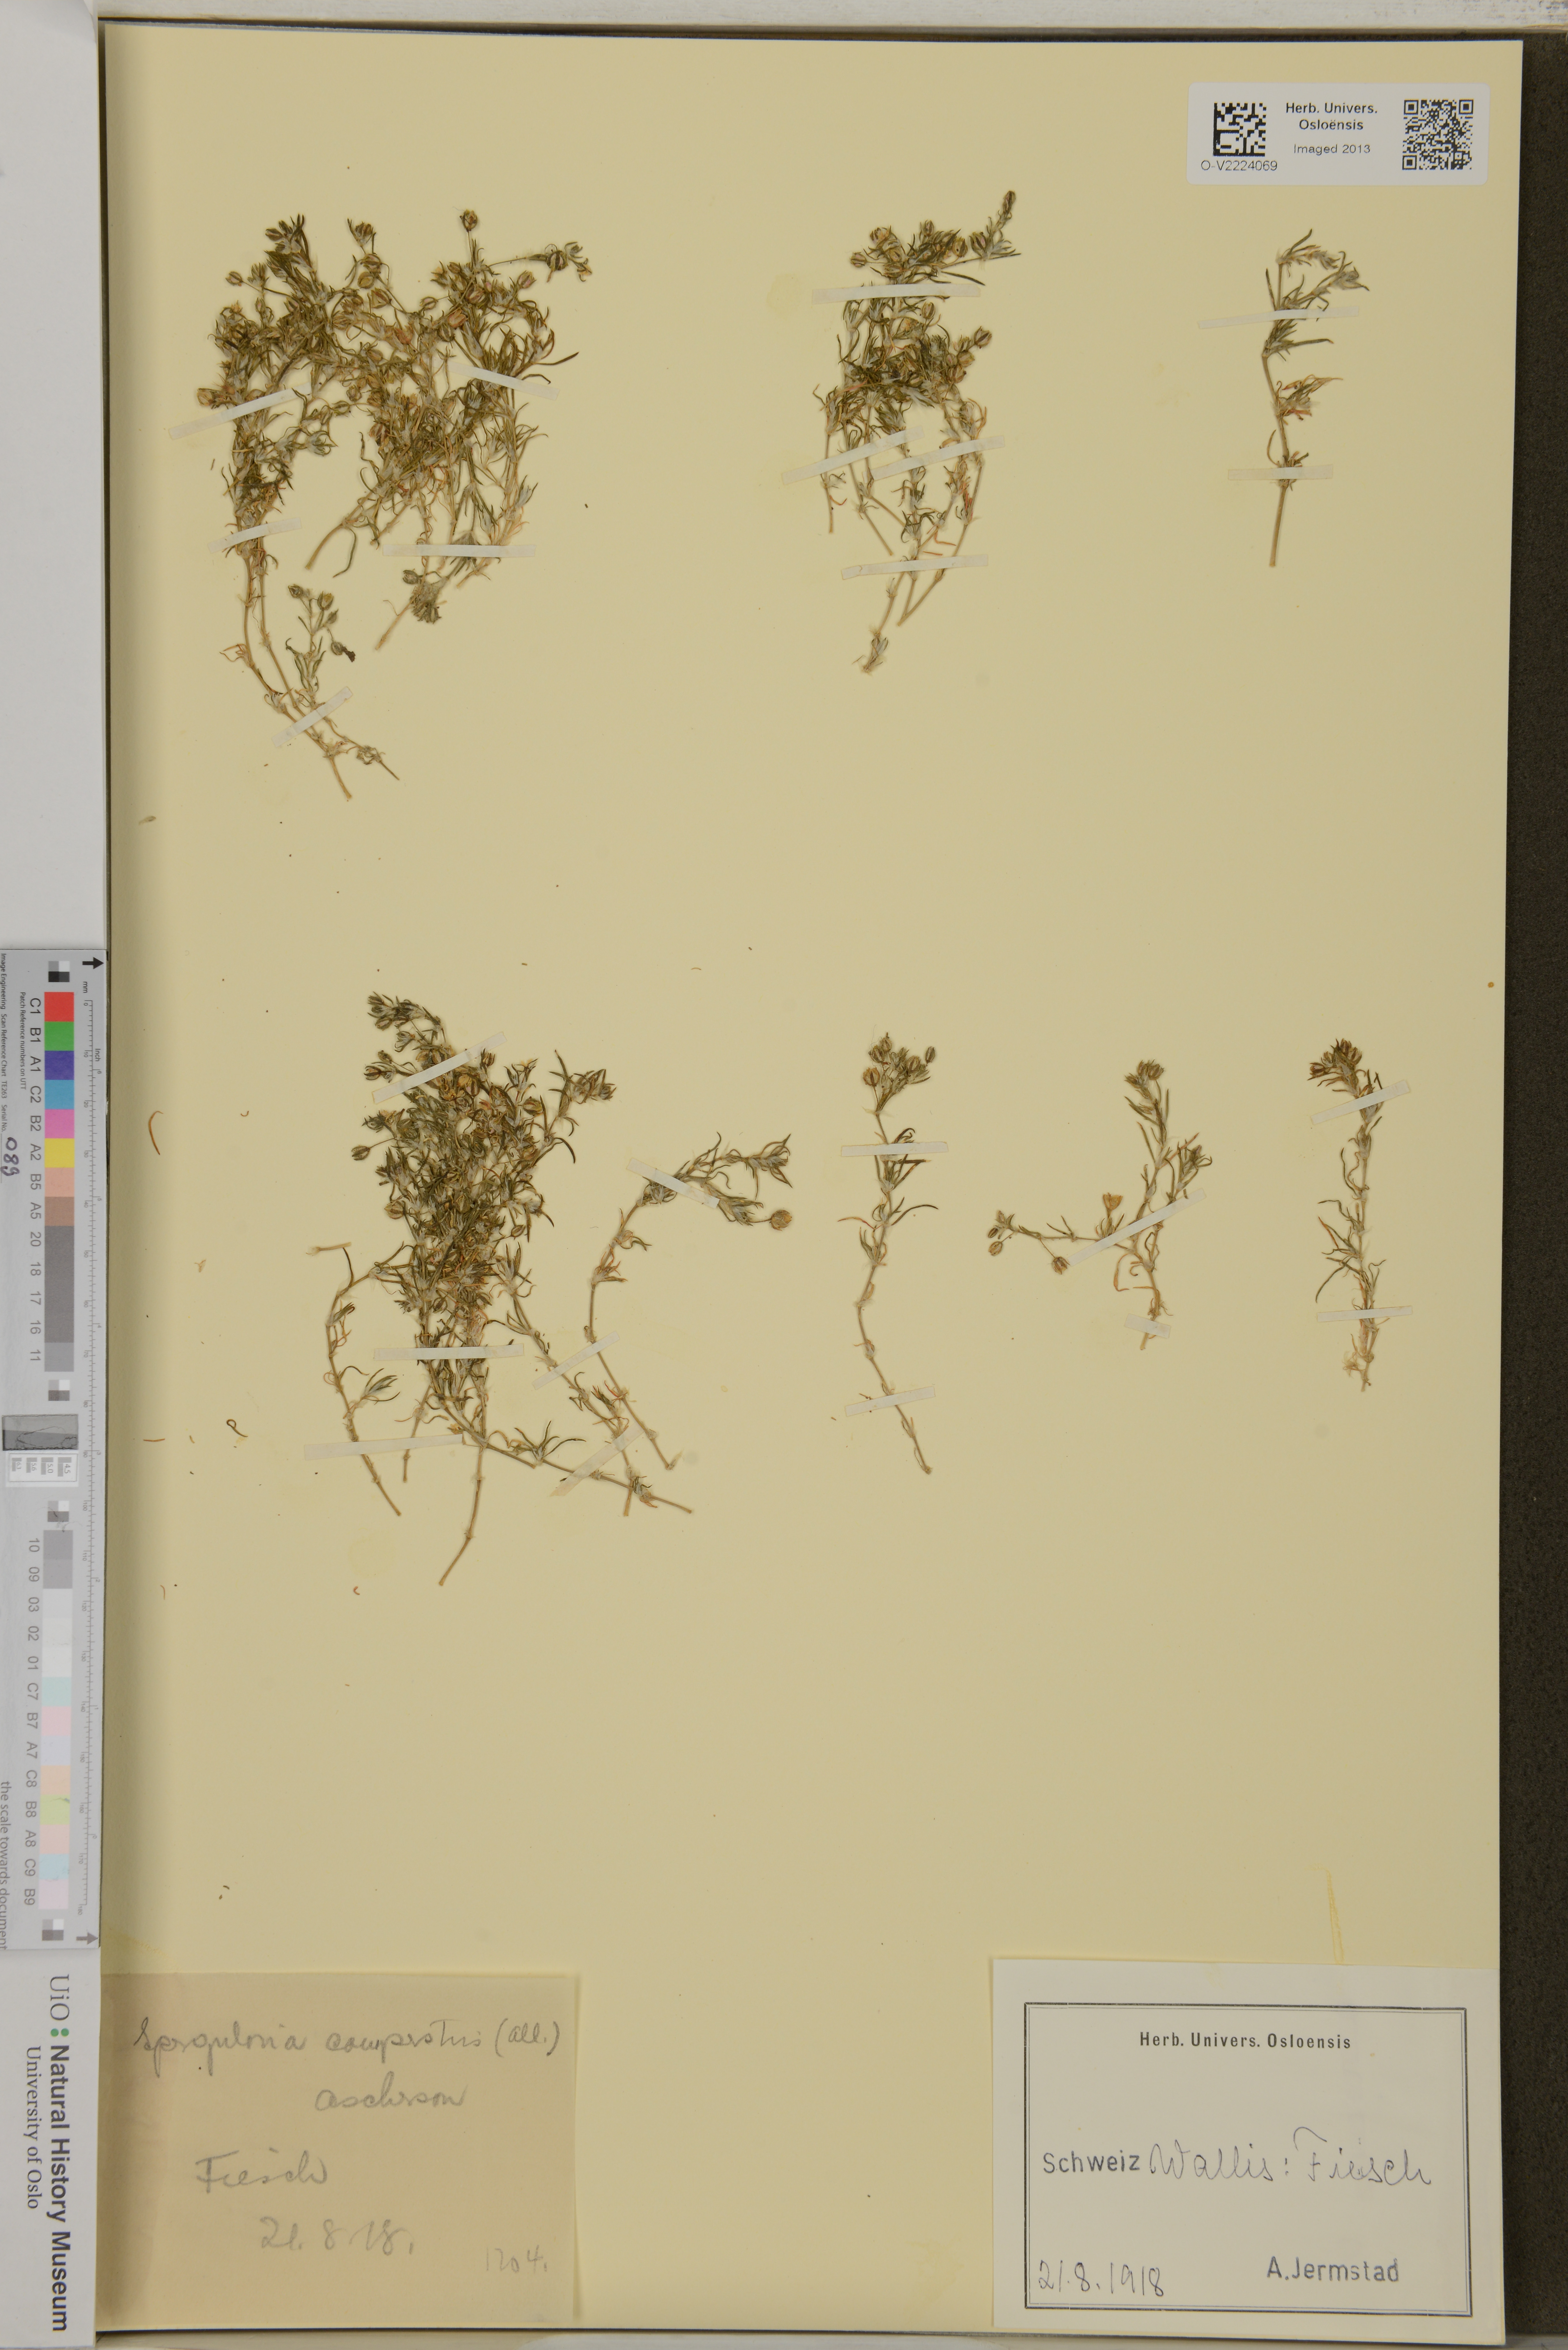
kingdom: Plantae
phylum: Tracheophyta
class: Magnoliopsida
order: Caryophyllales
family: Caryophyllaceae
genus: Spergularia
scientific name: Spergularia rubra
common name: Red sand-spurrey
